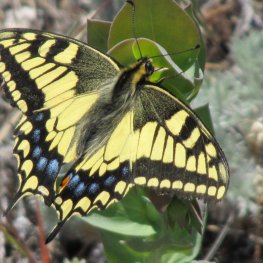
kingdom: Animalia
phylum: Arthropoda
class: Insecta
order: Lepidoptera
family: Papilionidae
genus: Papilio
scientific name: Papilio zelicaon
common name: Anise Swallowtail
